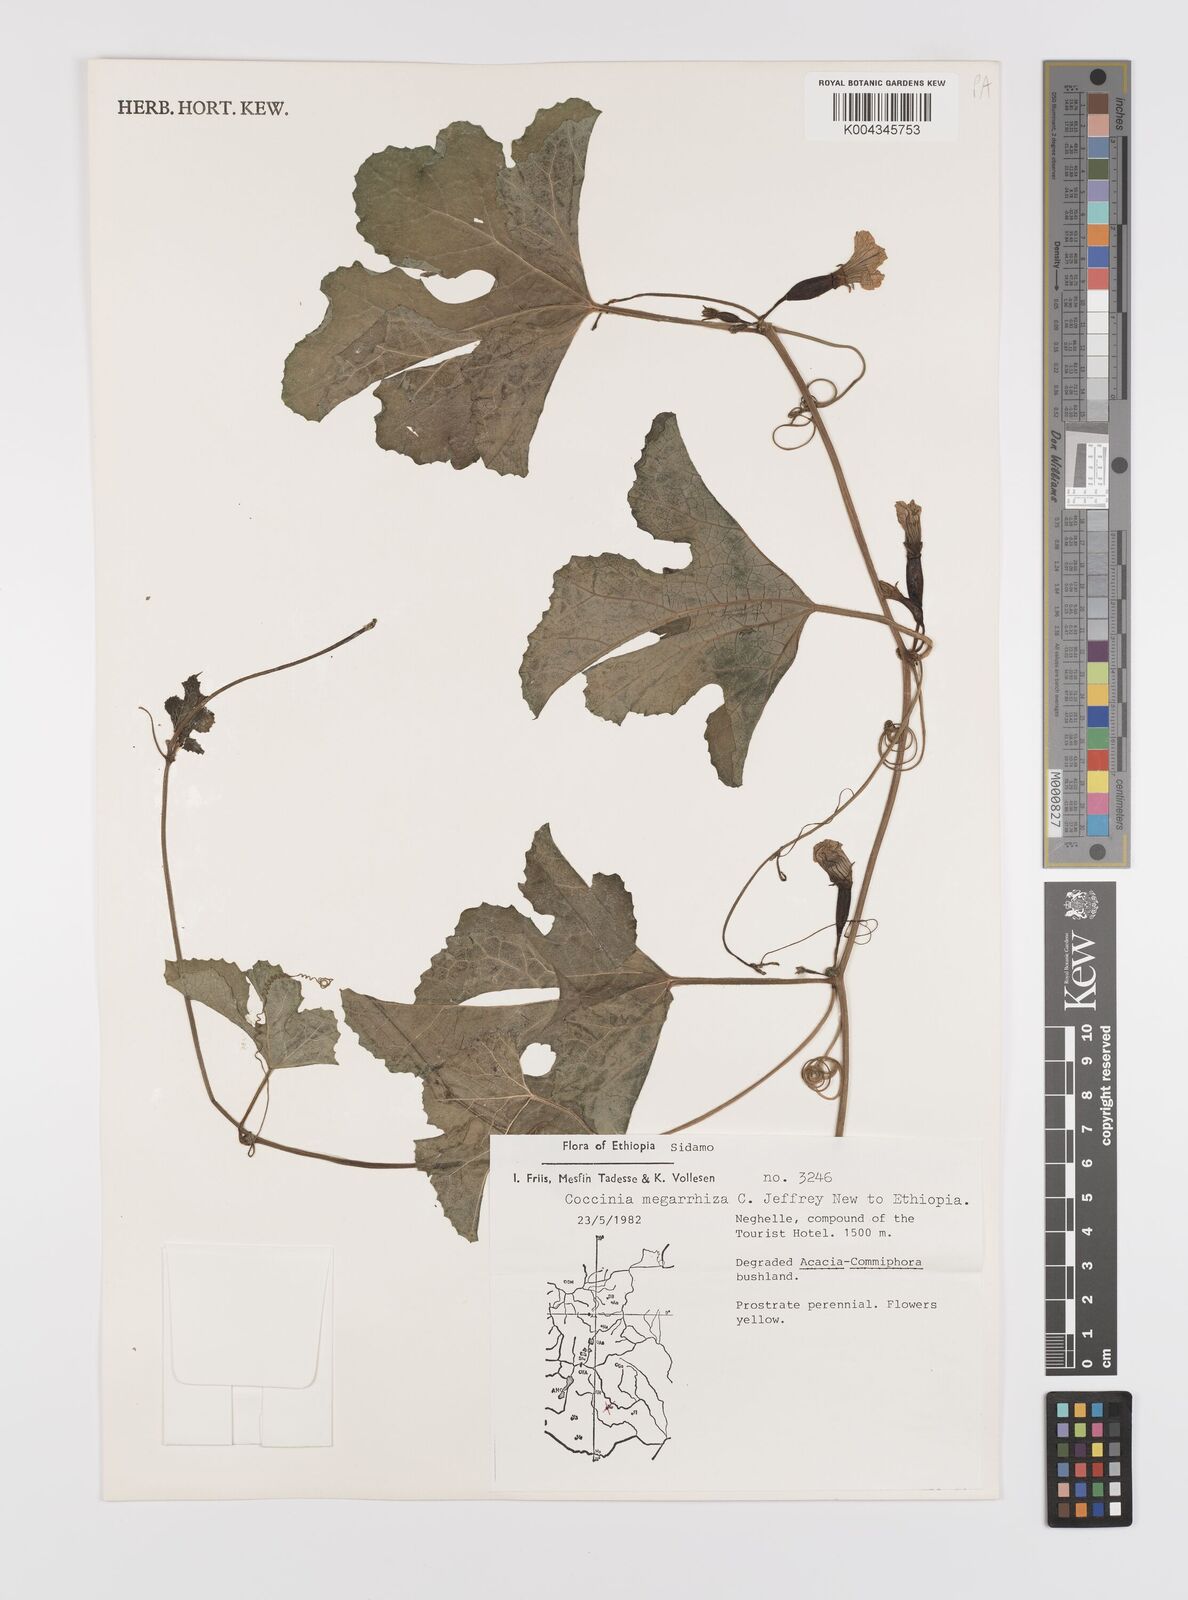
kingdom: Plantae
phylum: Tracheophyta
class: Magnoliopsida
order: Cucurbitales
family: Cucurbitaceae
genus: Coccinia
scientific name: Coccinia megarrhiza
